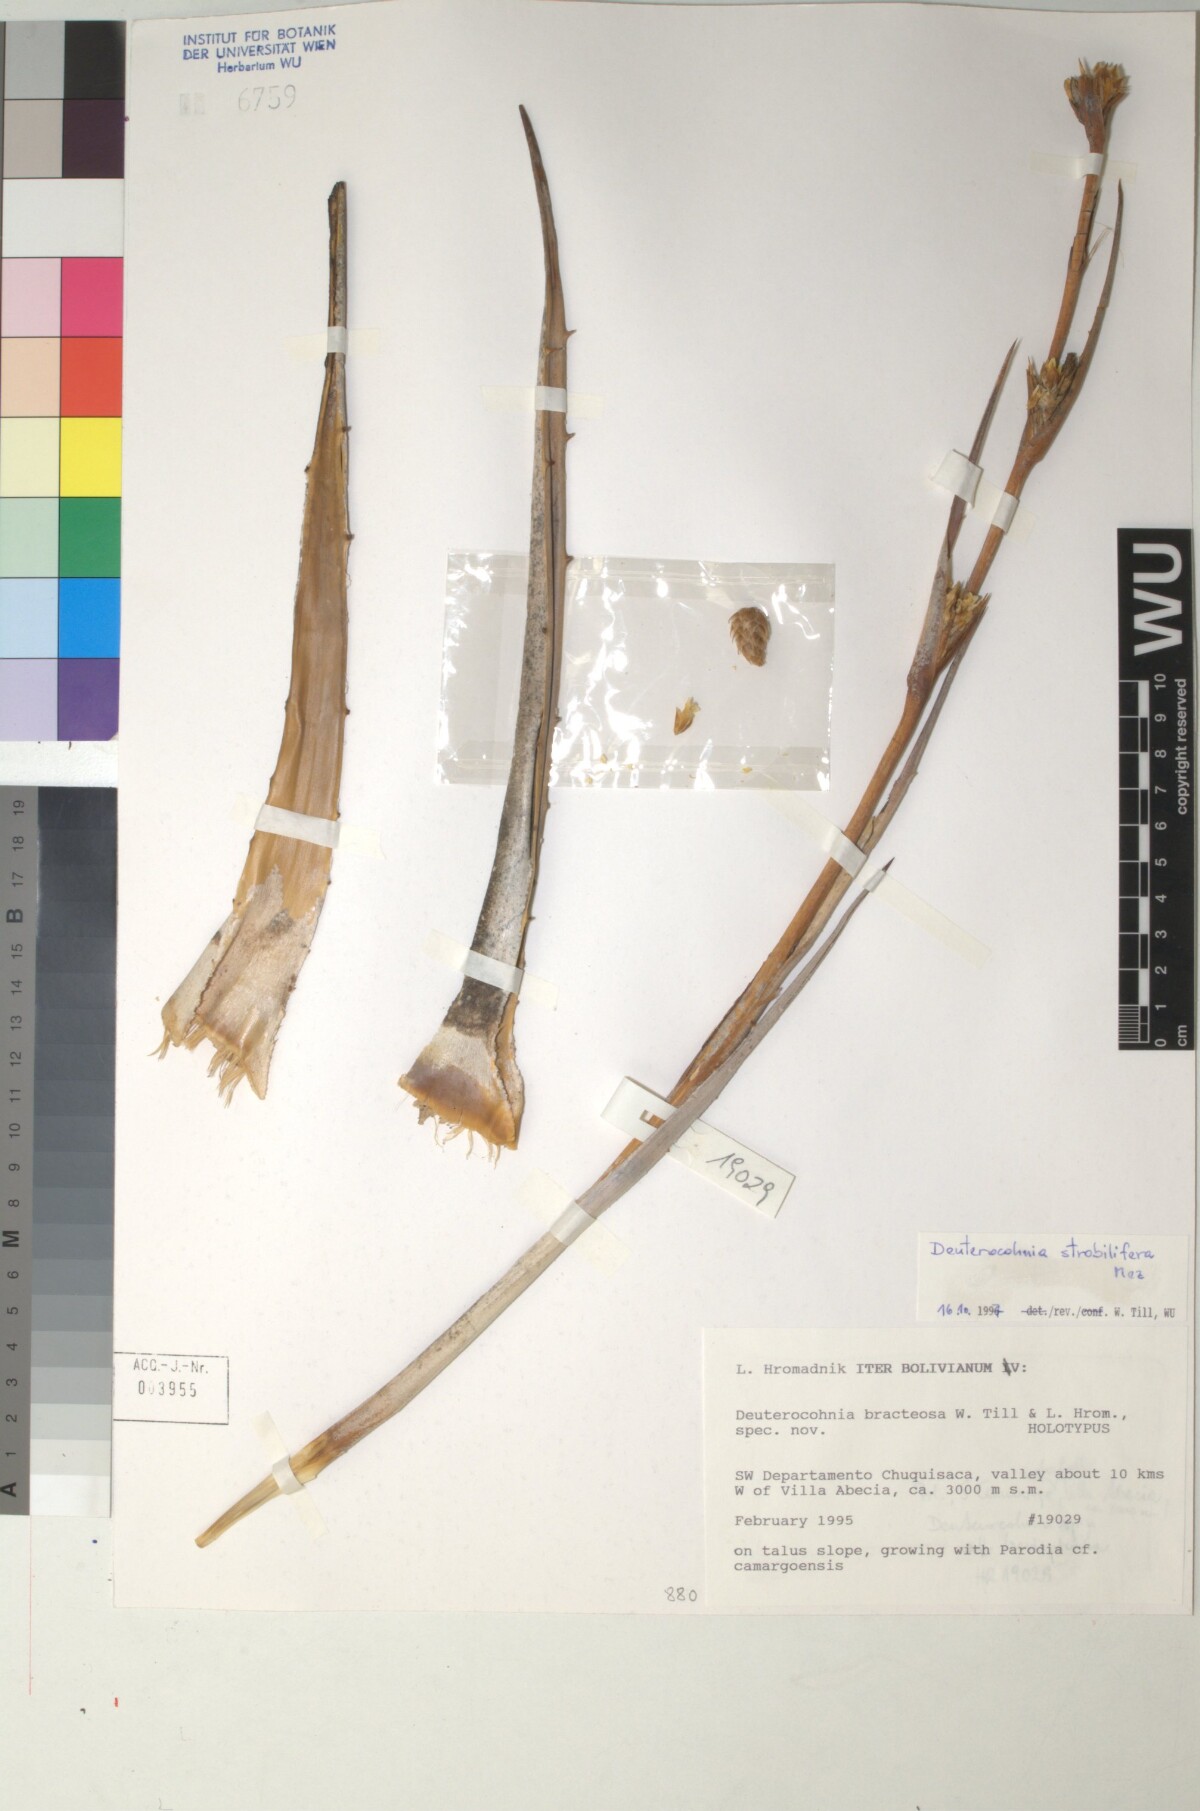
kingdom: Plantae
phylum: Tracheophyta
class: Liliopsida
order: Poales
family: Bromeliaceae
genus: Deuterocohnia
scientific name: Deuterocohnia strobilifera
